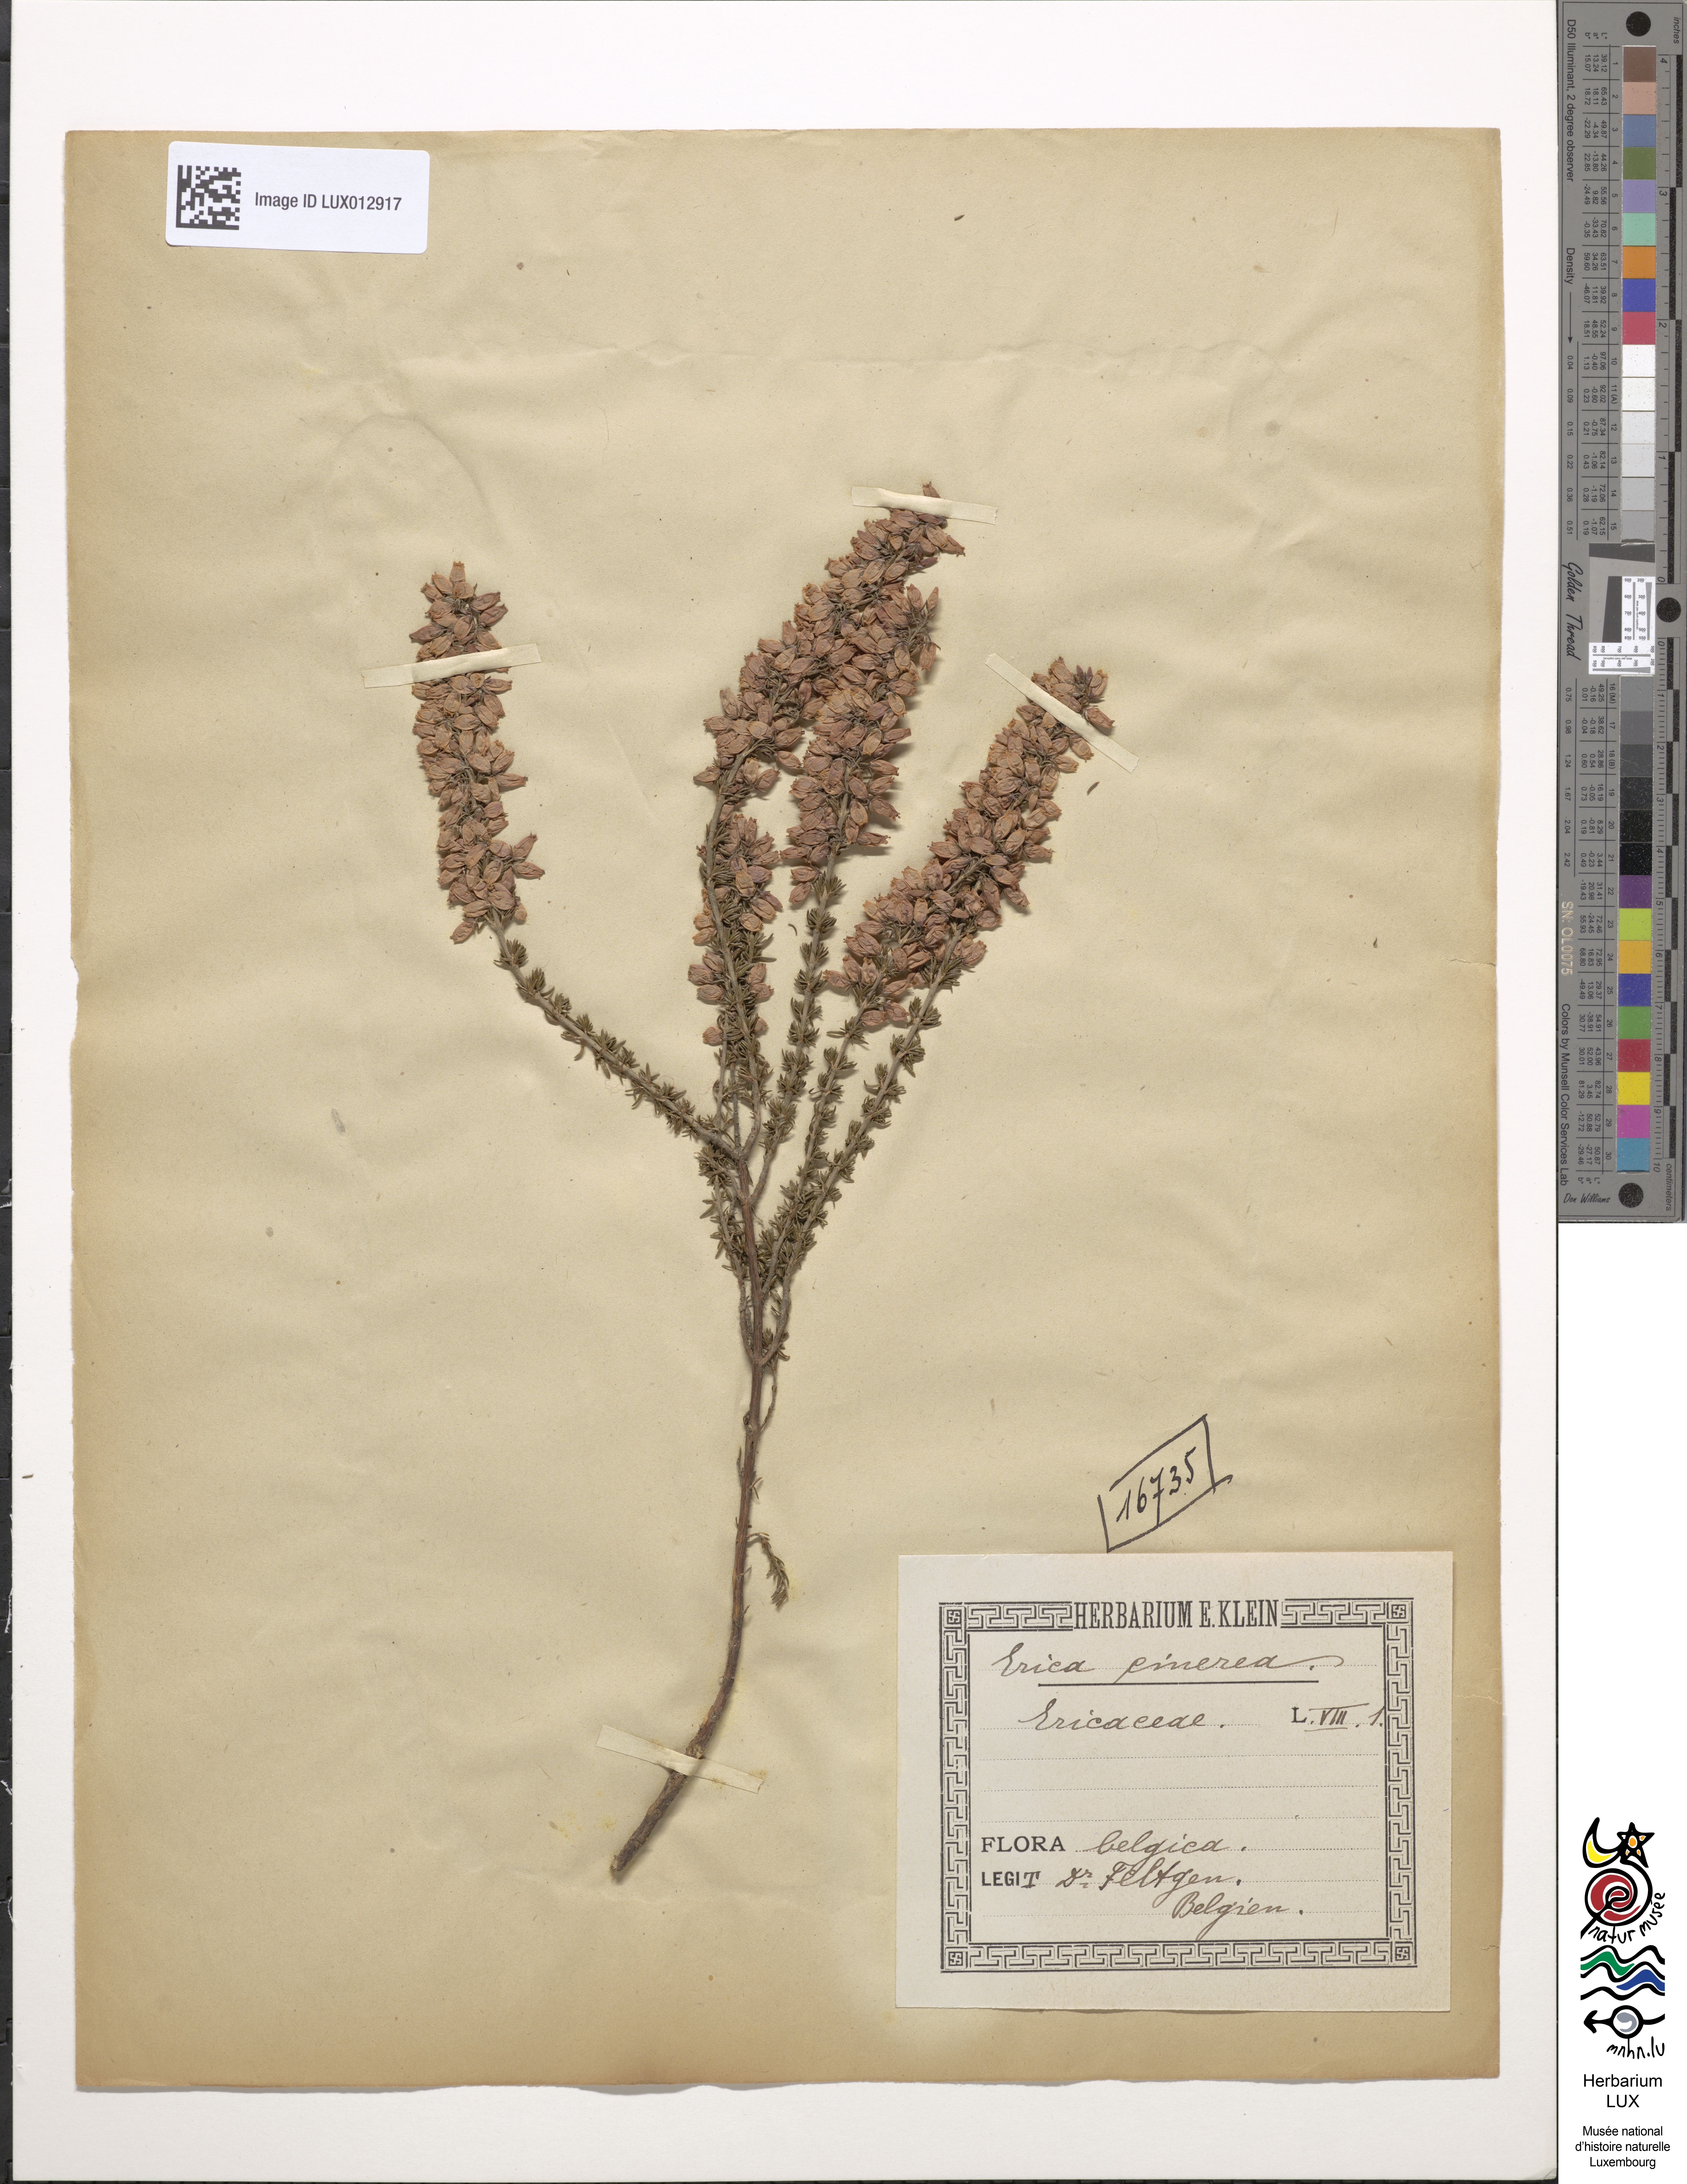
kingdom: Plantae
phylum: Tracheophyta
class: Magnoliopsida
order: Ericales
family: Ericaceae
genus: Erica
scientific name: Erica cinerea
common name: Bell heather
